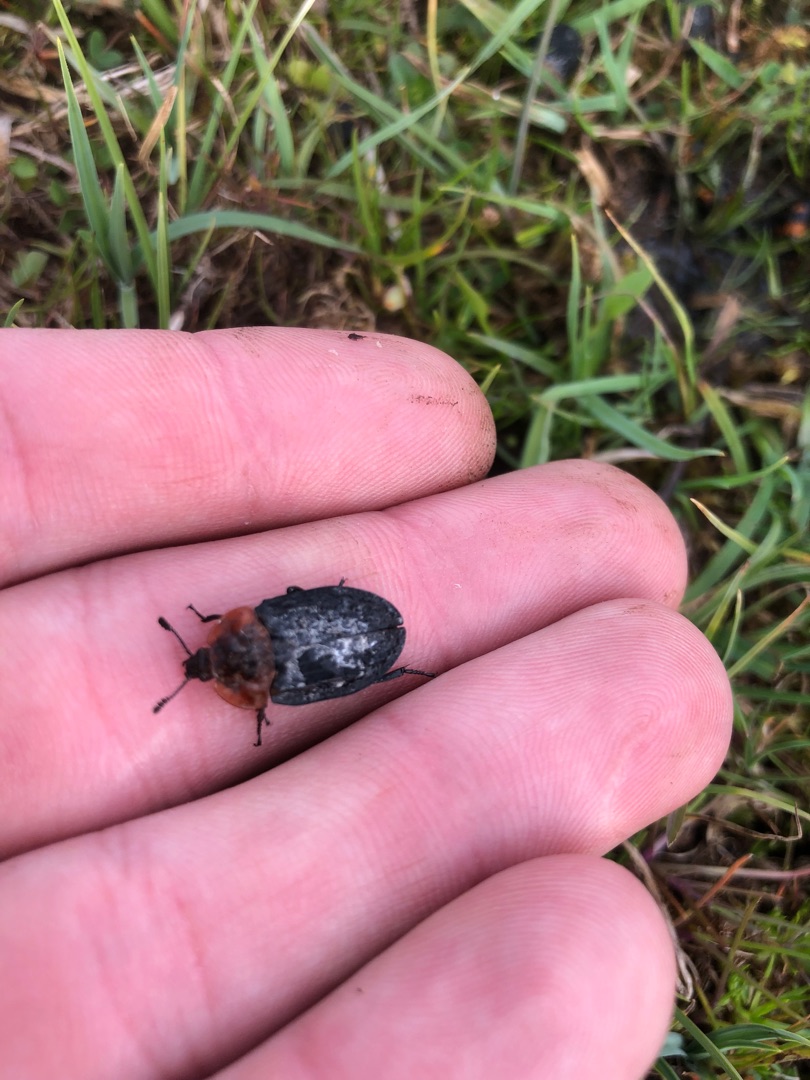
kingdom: Animalia
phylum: Arthropoda
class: Insecta
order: Coleoptera
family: Staphylinidae
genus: Oiceoptoma
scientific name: Oiceoptoma thoracicum
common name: Rødbrystet ådselbille
